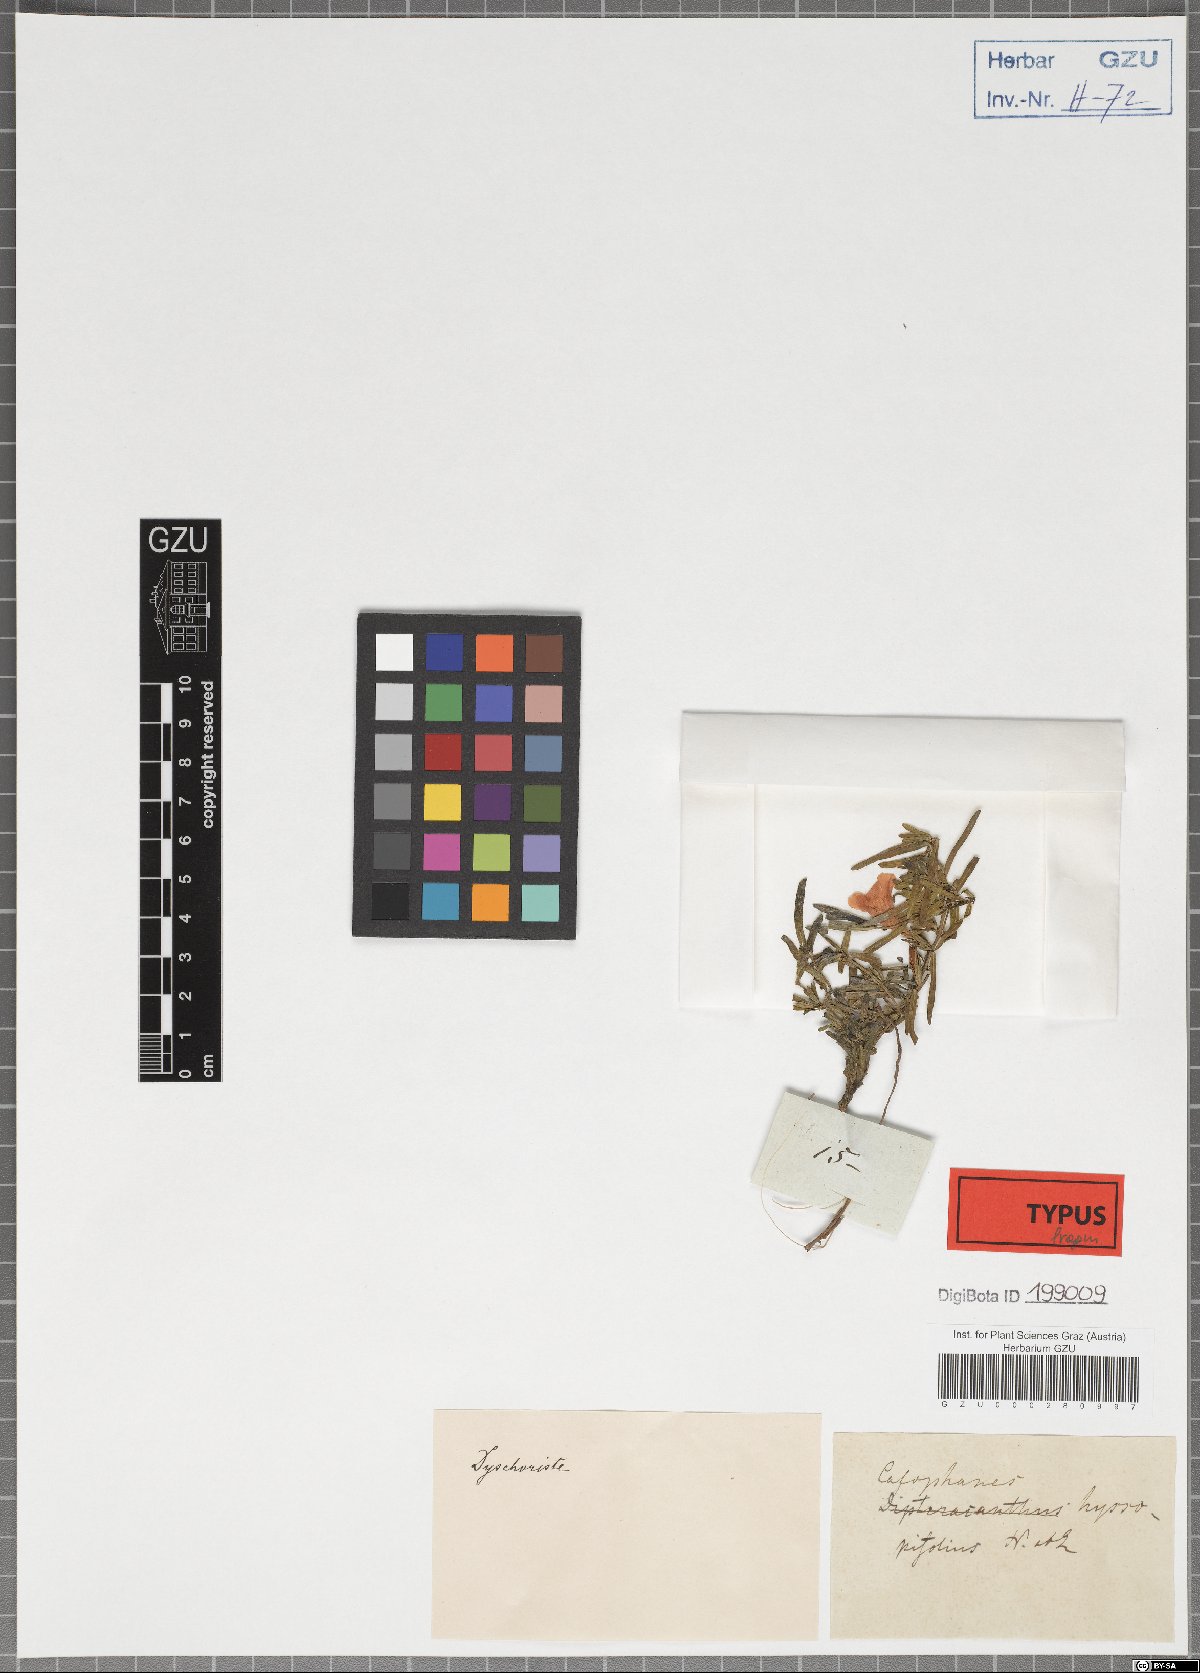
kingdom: Plantae
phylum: Tracheophyta
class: Magnoliopsida
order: Lamiales
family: Acanthaceae
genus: Dyschoriste
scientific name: Dyschoriste nagchana
